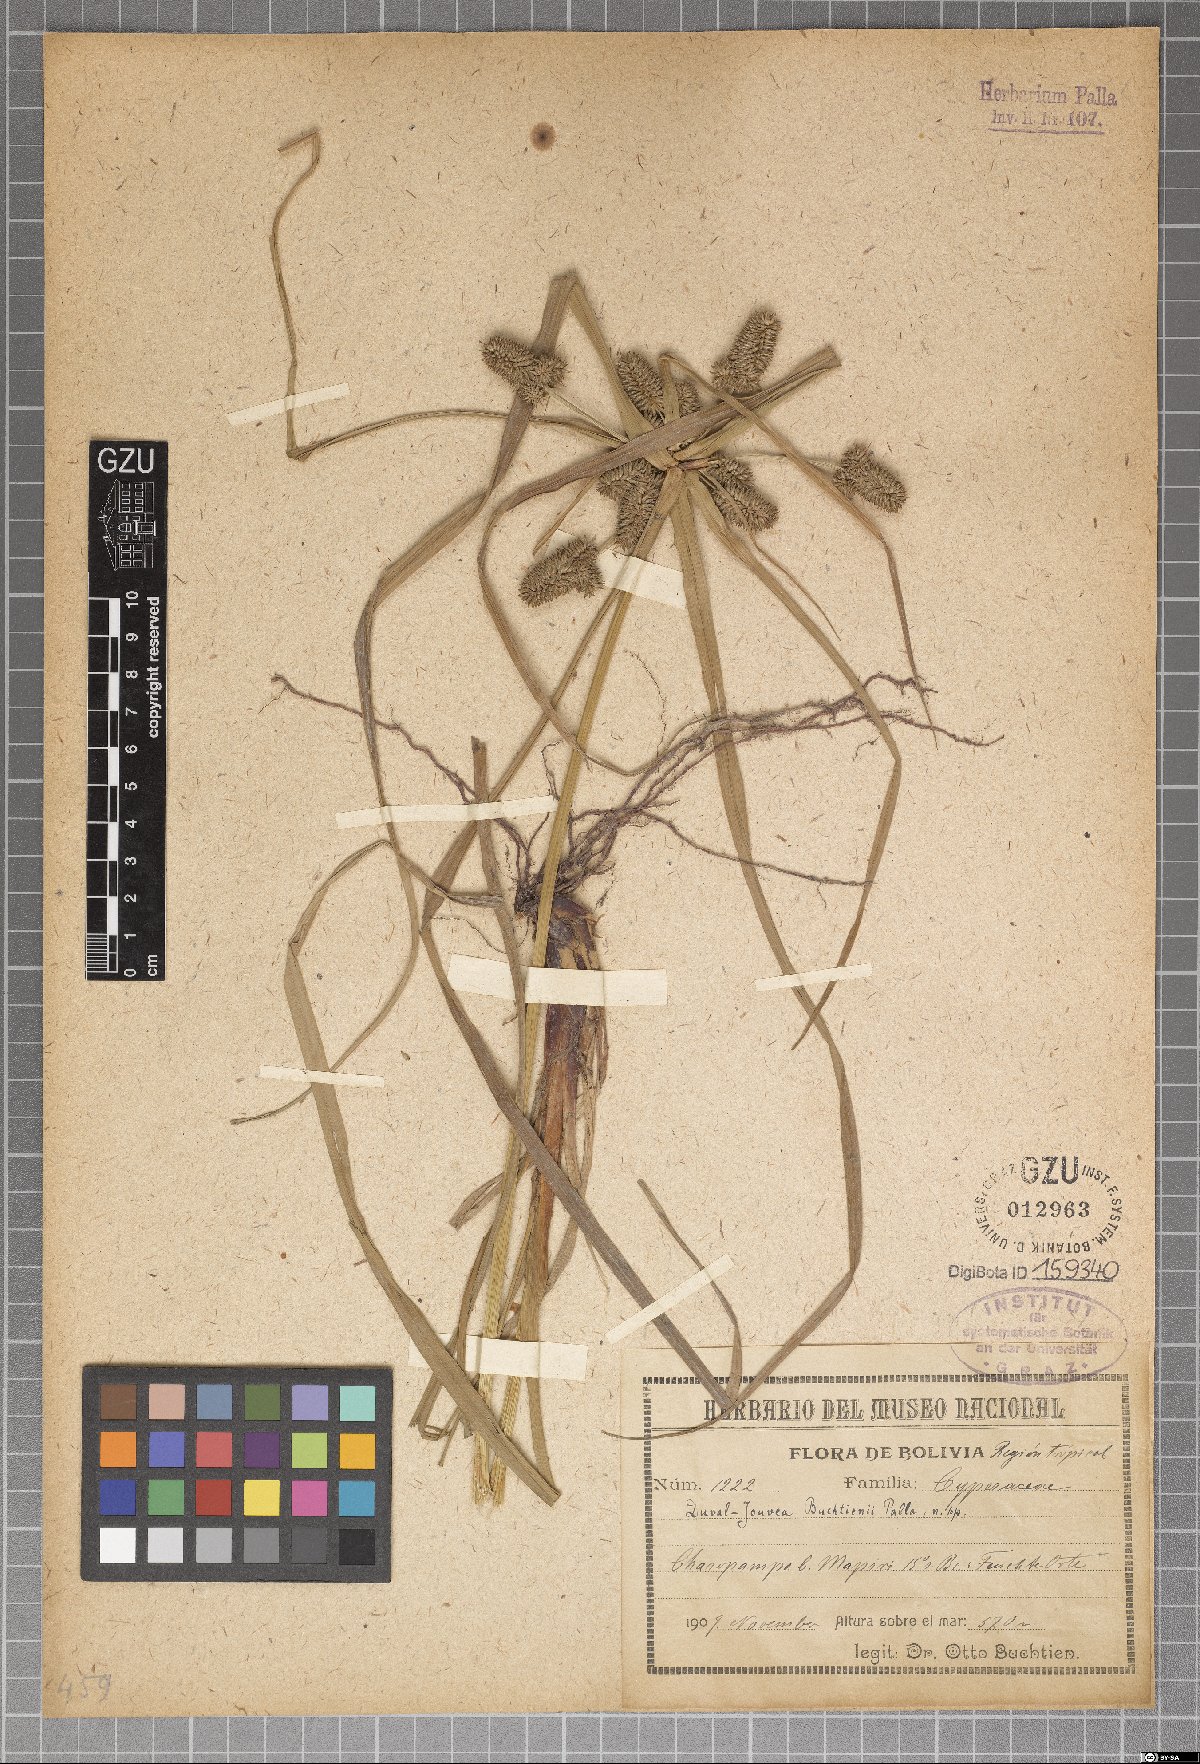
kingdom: Plantae
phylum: Tracheophyta
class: Liliopsida
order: Poales
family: Cyperaceae
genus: Cyperus
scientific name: Cyperus Duval-jouvea buchtienii
